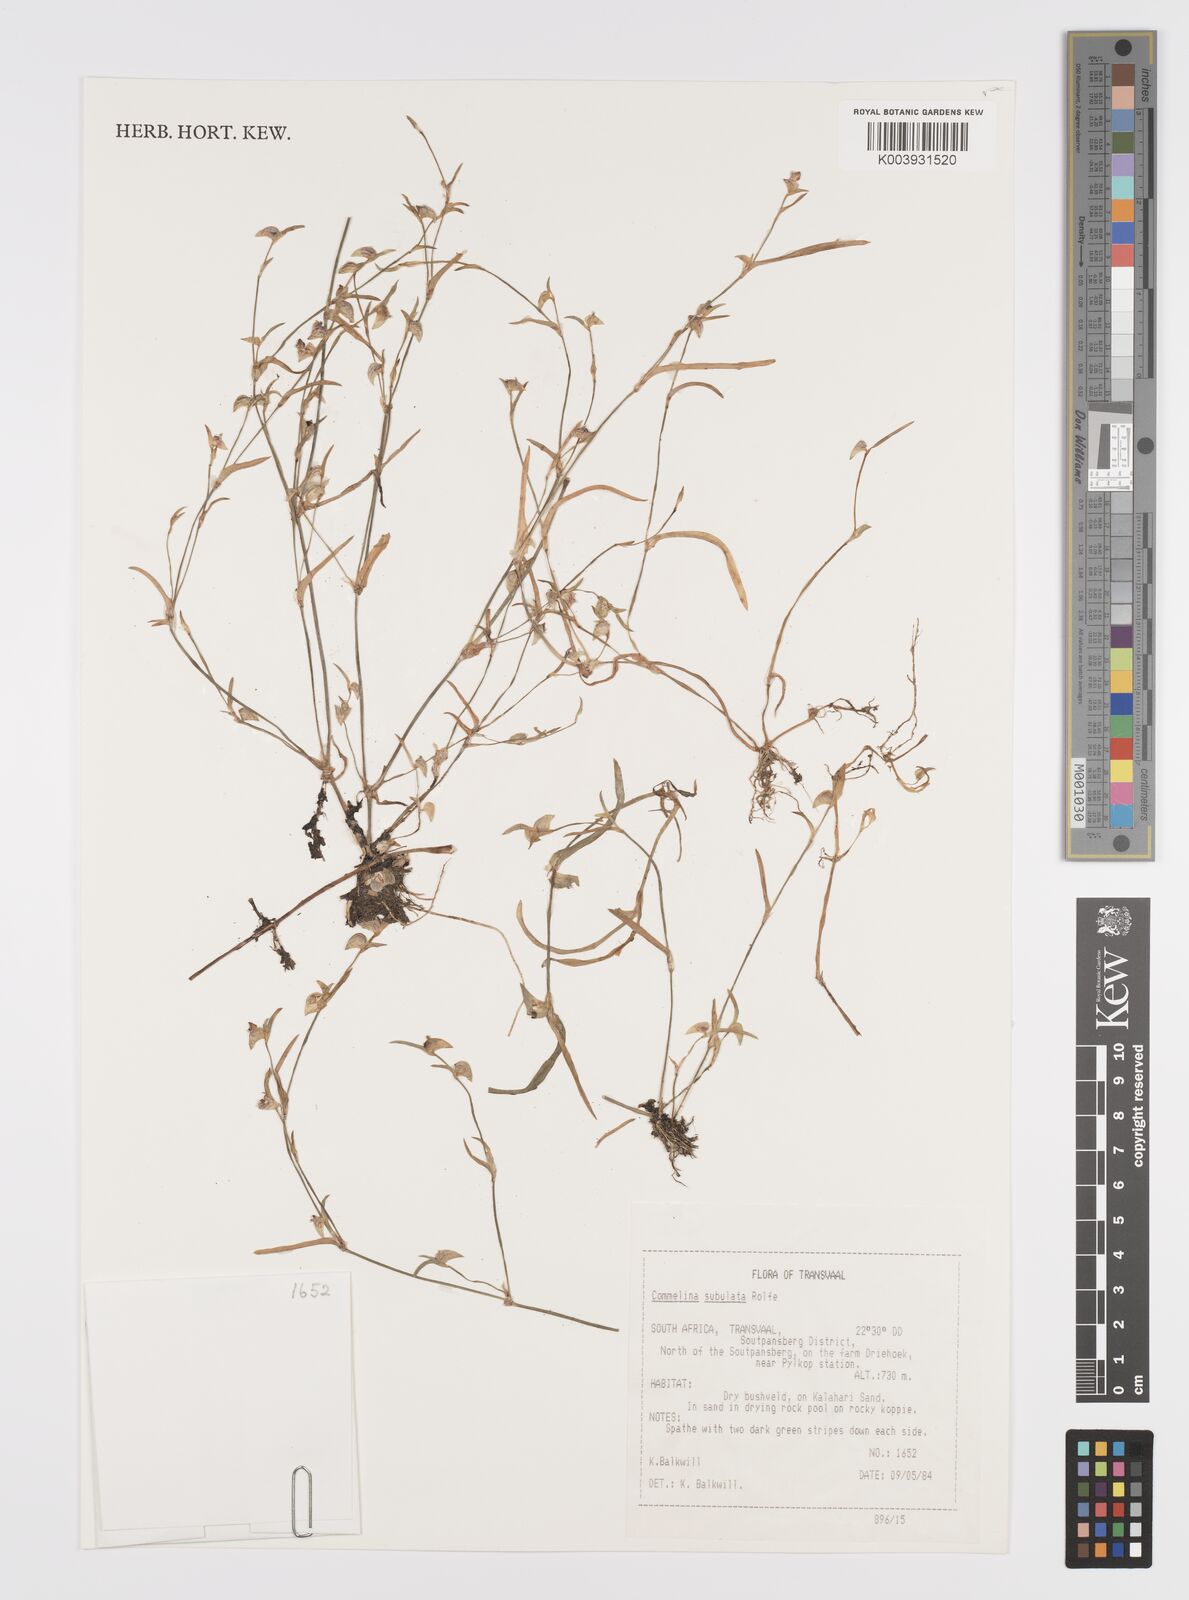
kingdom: Plantae
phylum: Tracheophyta
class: Liliopsida
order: Commelinales
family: Commelinaceae
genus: Commelina
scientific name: Commelina subulata
